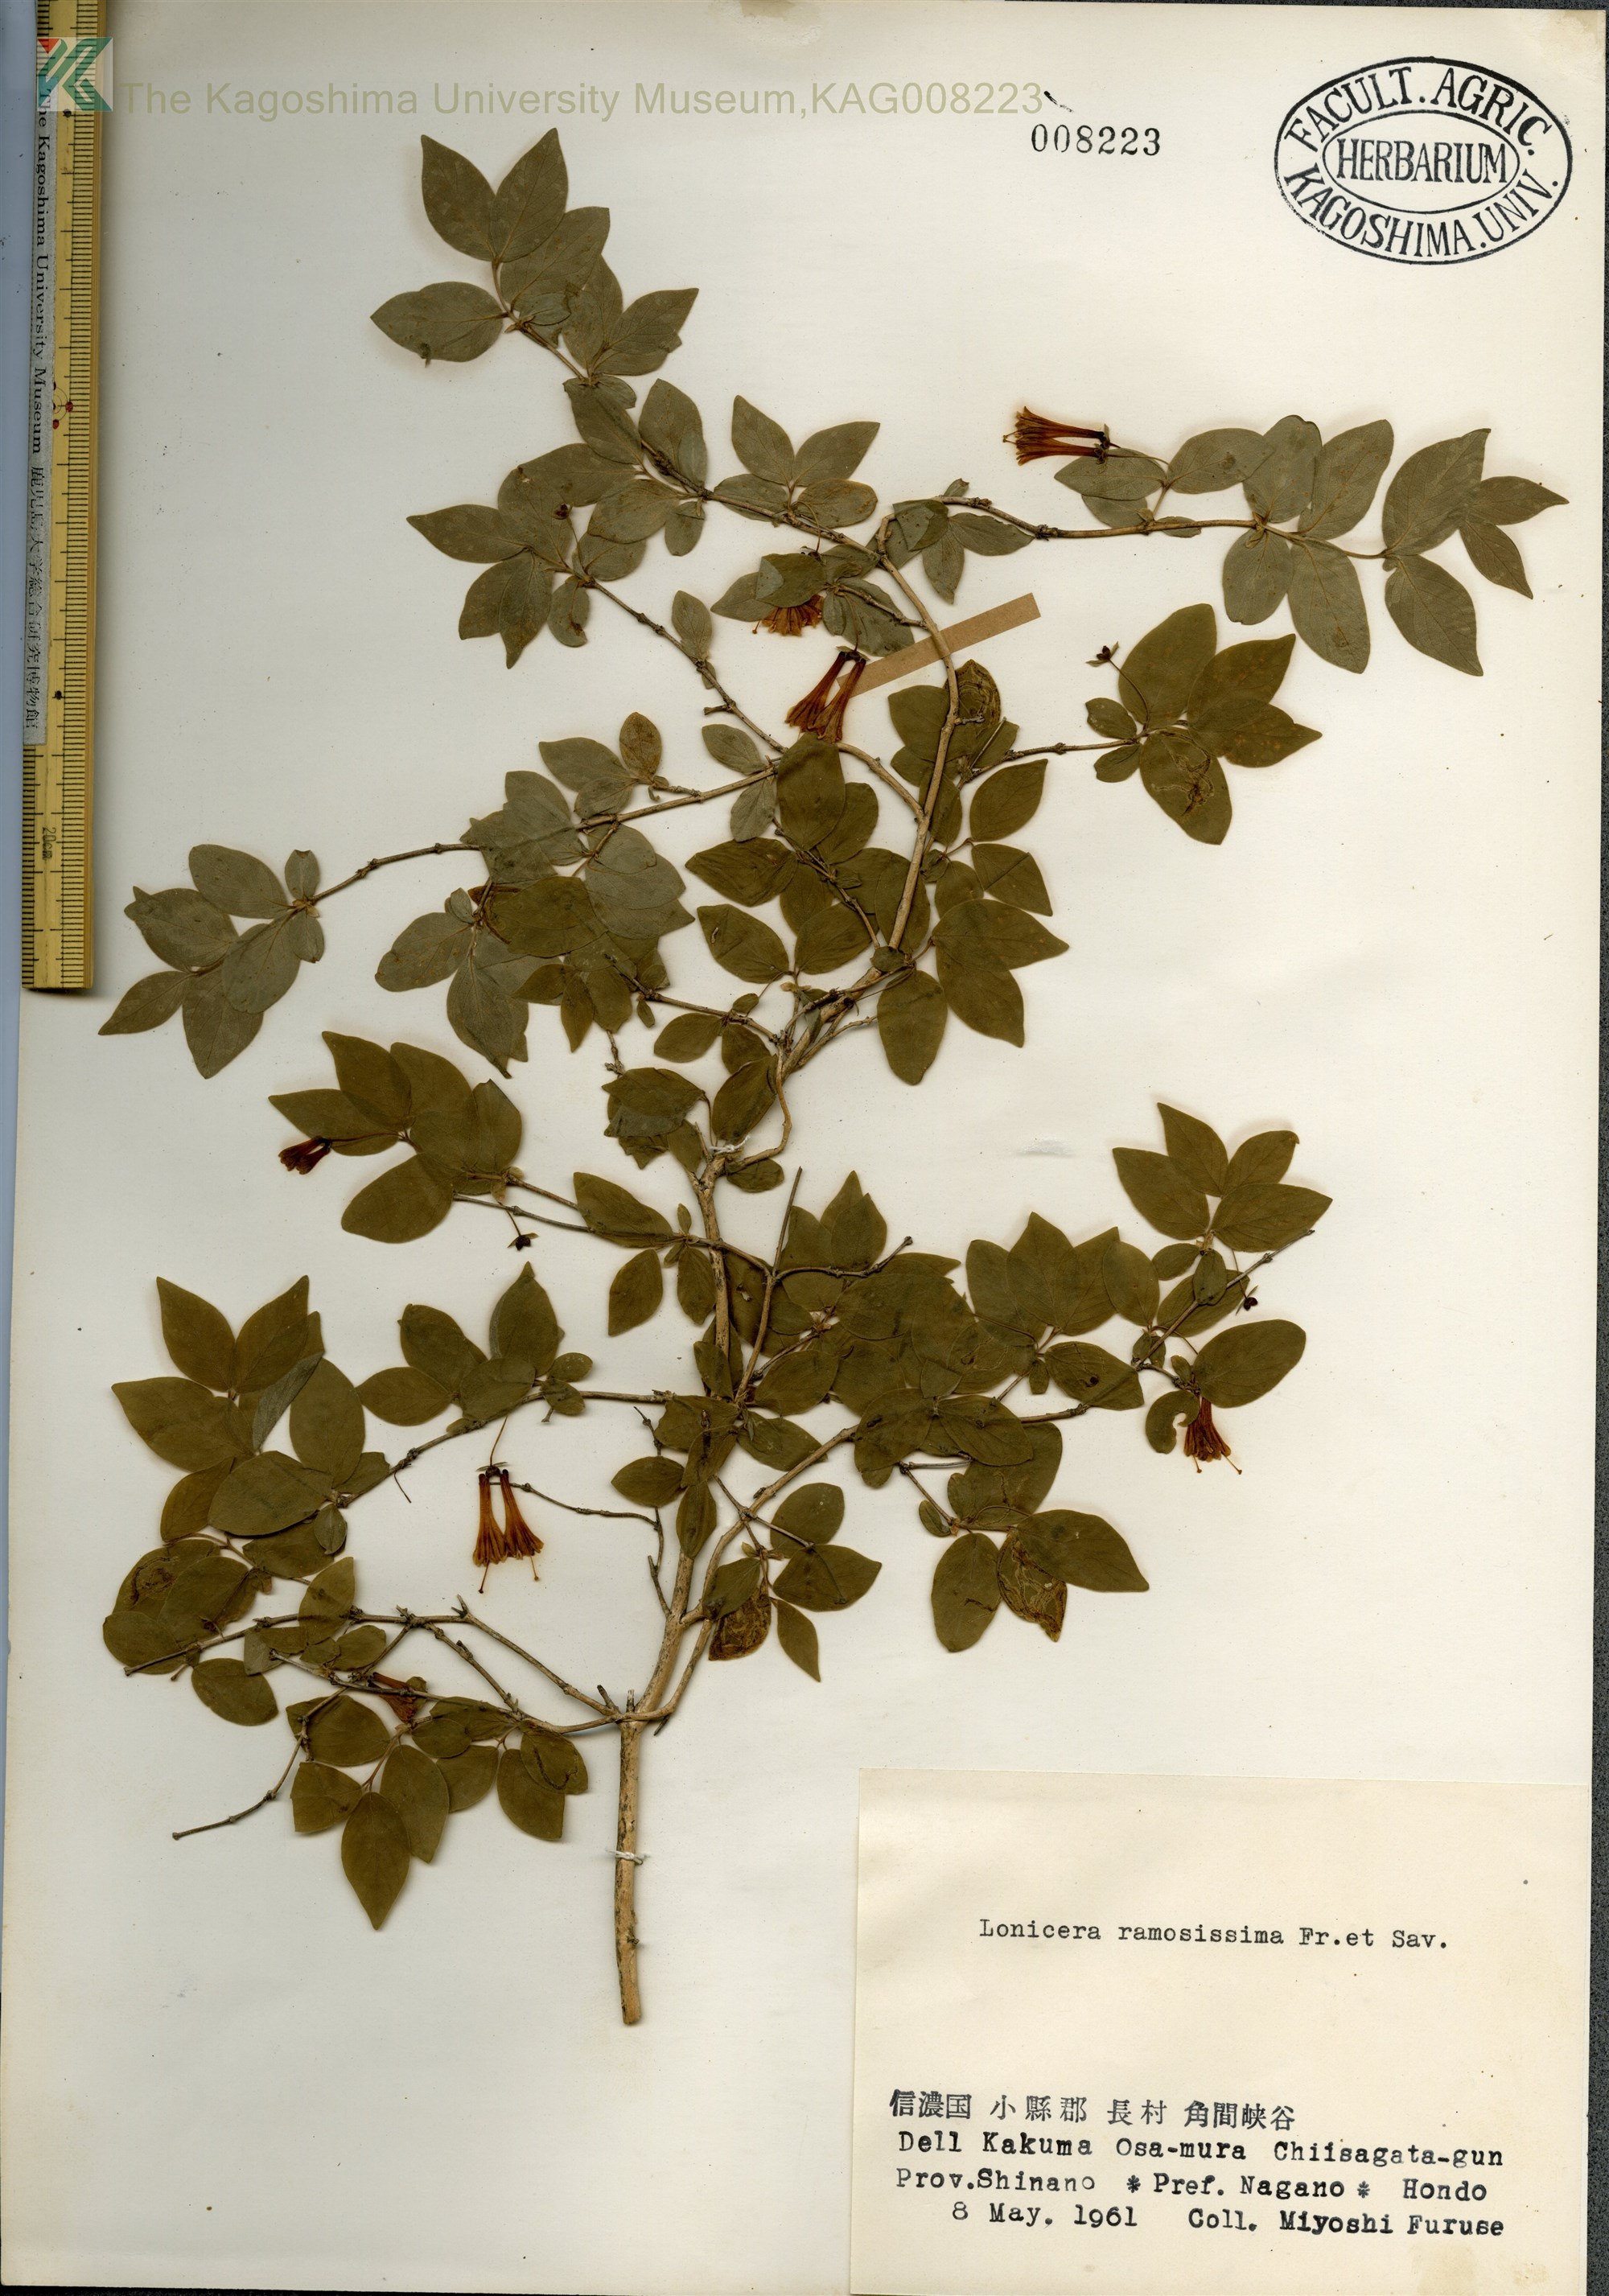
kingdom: Plantae
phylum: Tracheophyta
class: Magnoliopsida
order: Dipsacales
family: Caprifoliaceae
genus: Lonicera
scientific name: Lonicera ramosissima
